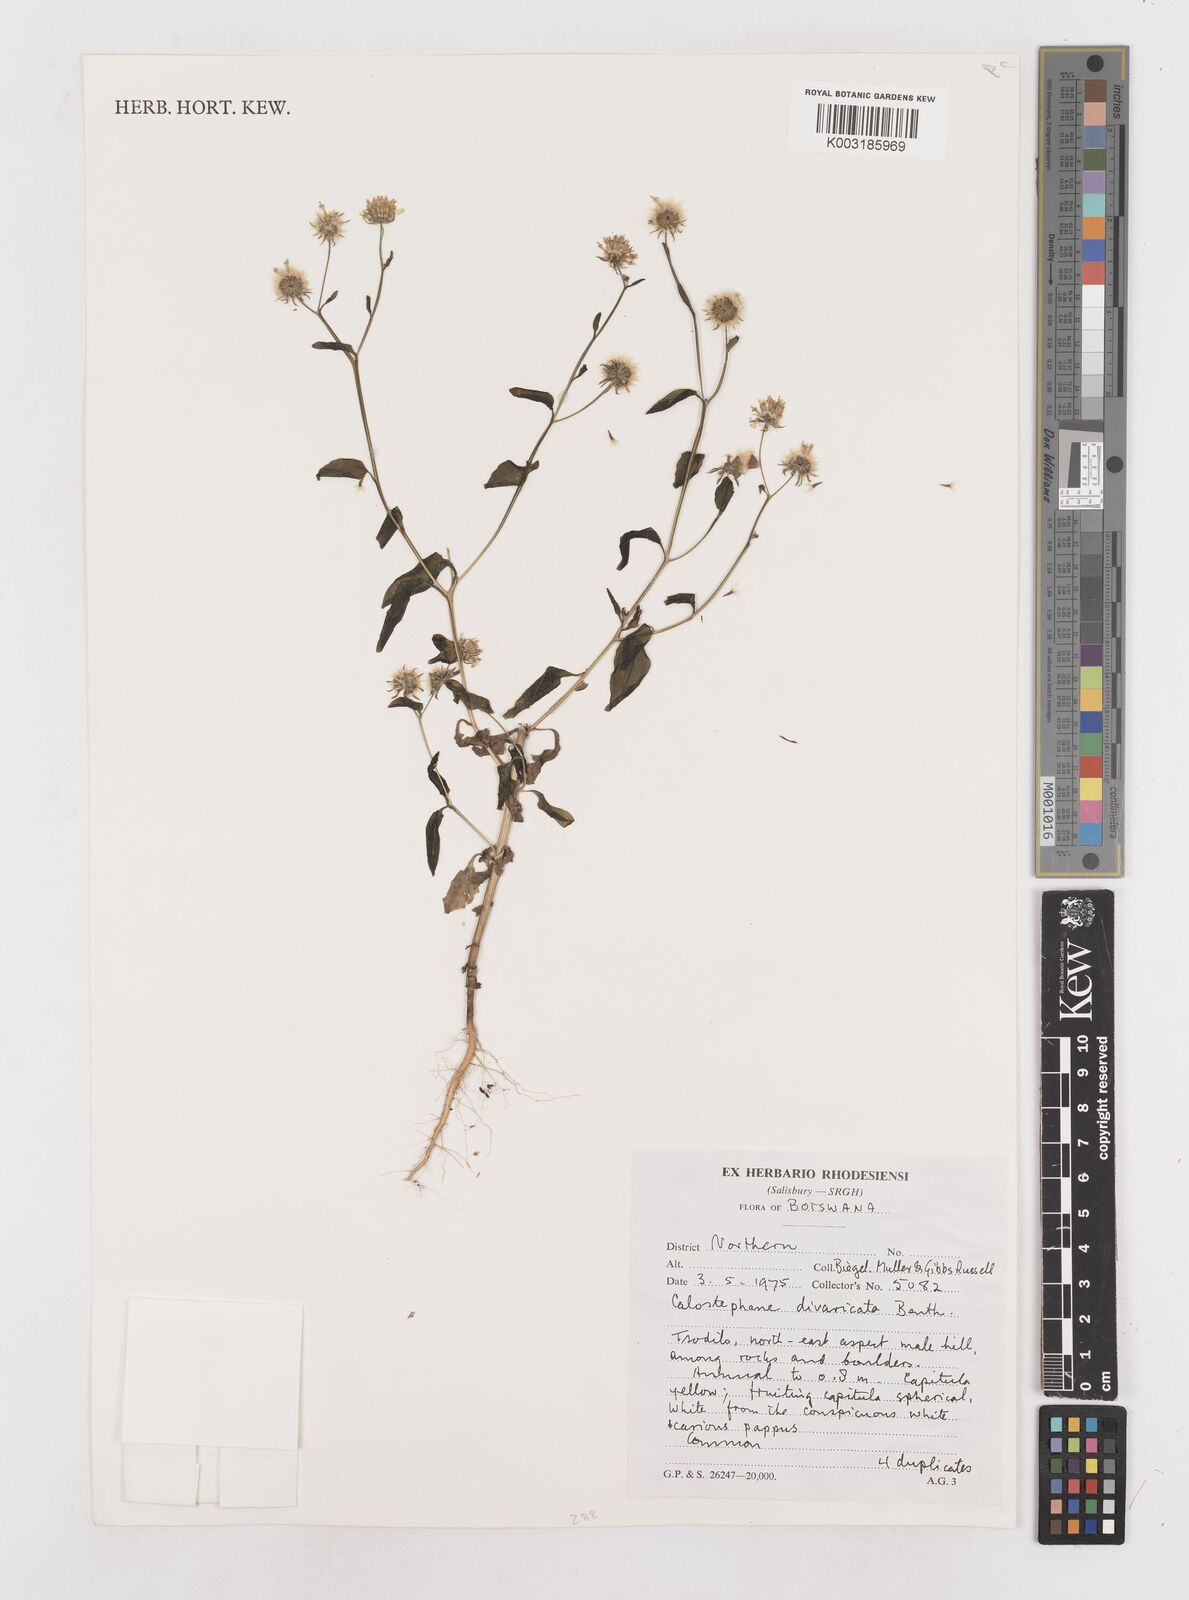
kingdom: Plantae
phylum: Tracheophyta
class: Magnoliopsida
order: Asterales
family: Asteraceae
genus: Calostephane
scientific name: Calostephane divaricata
